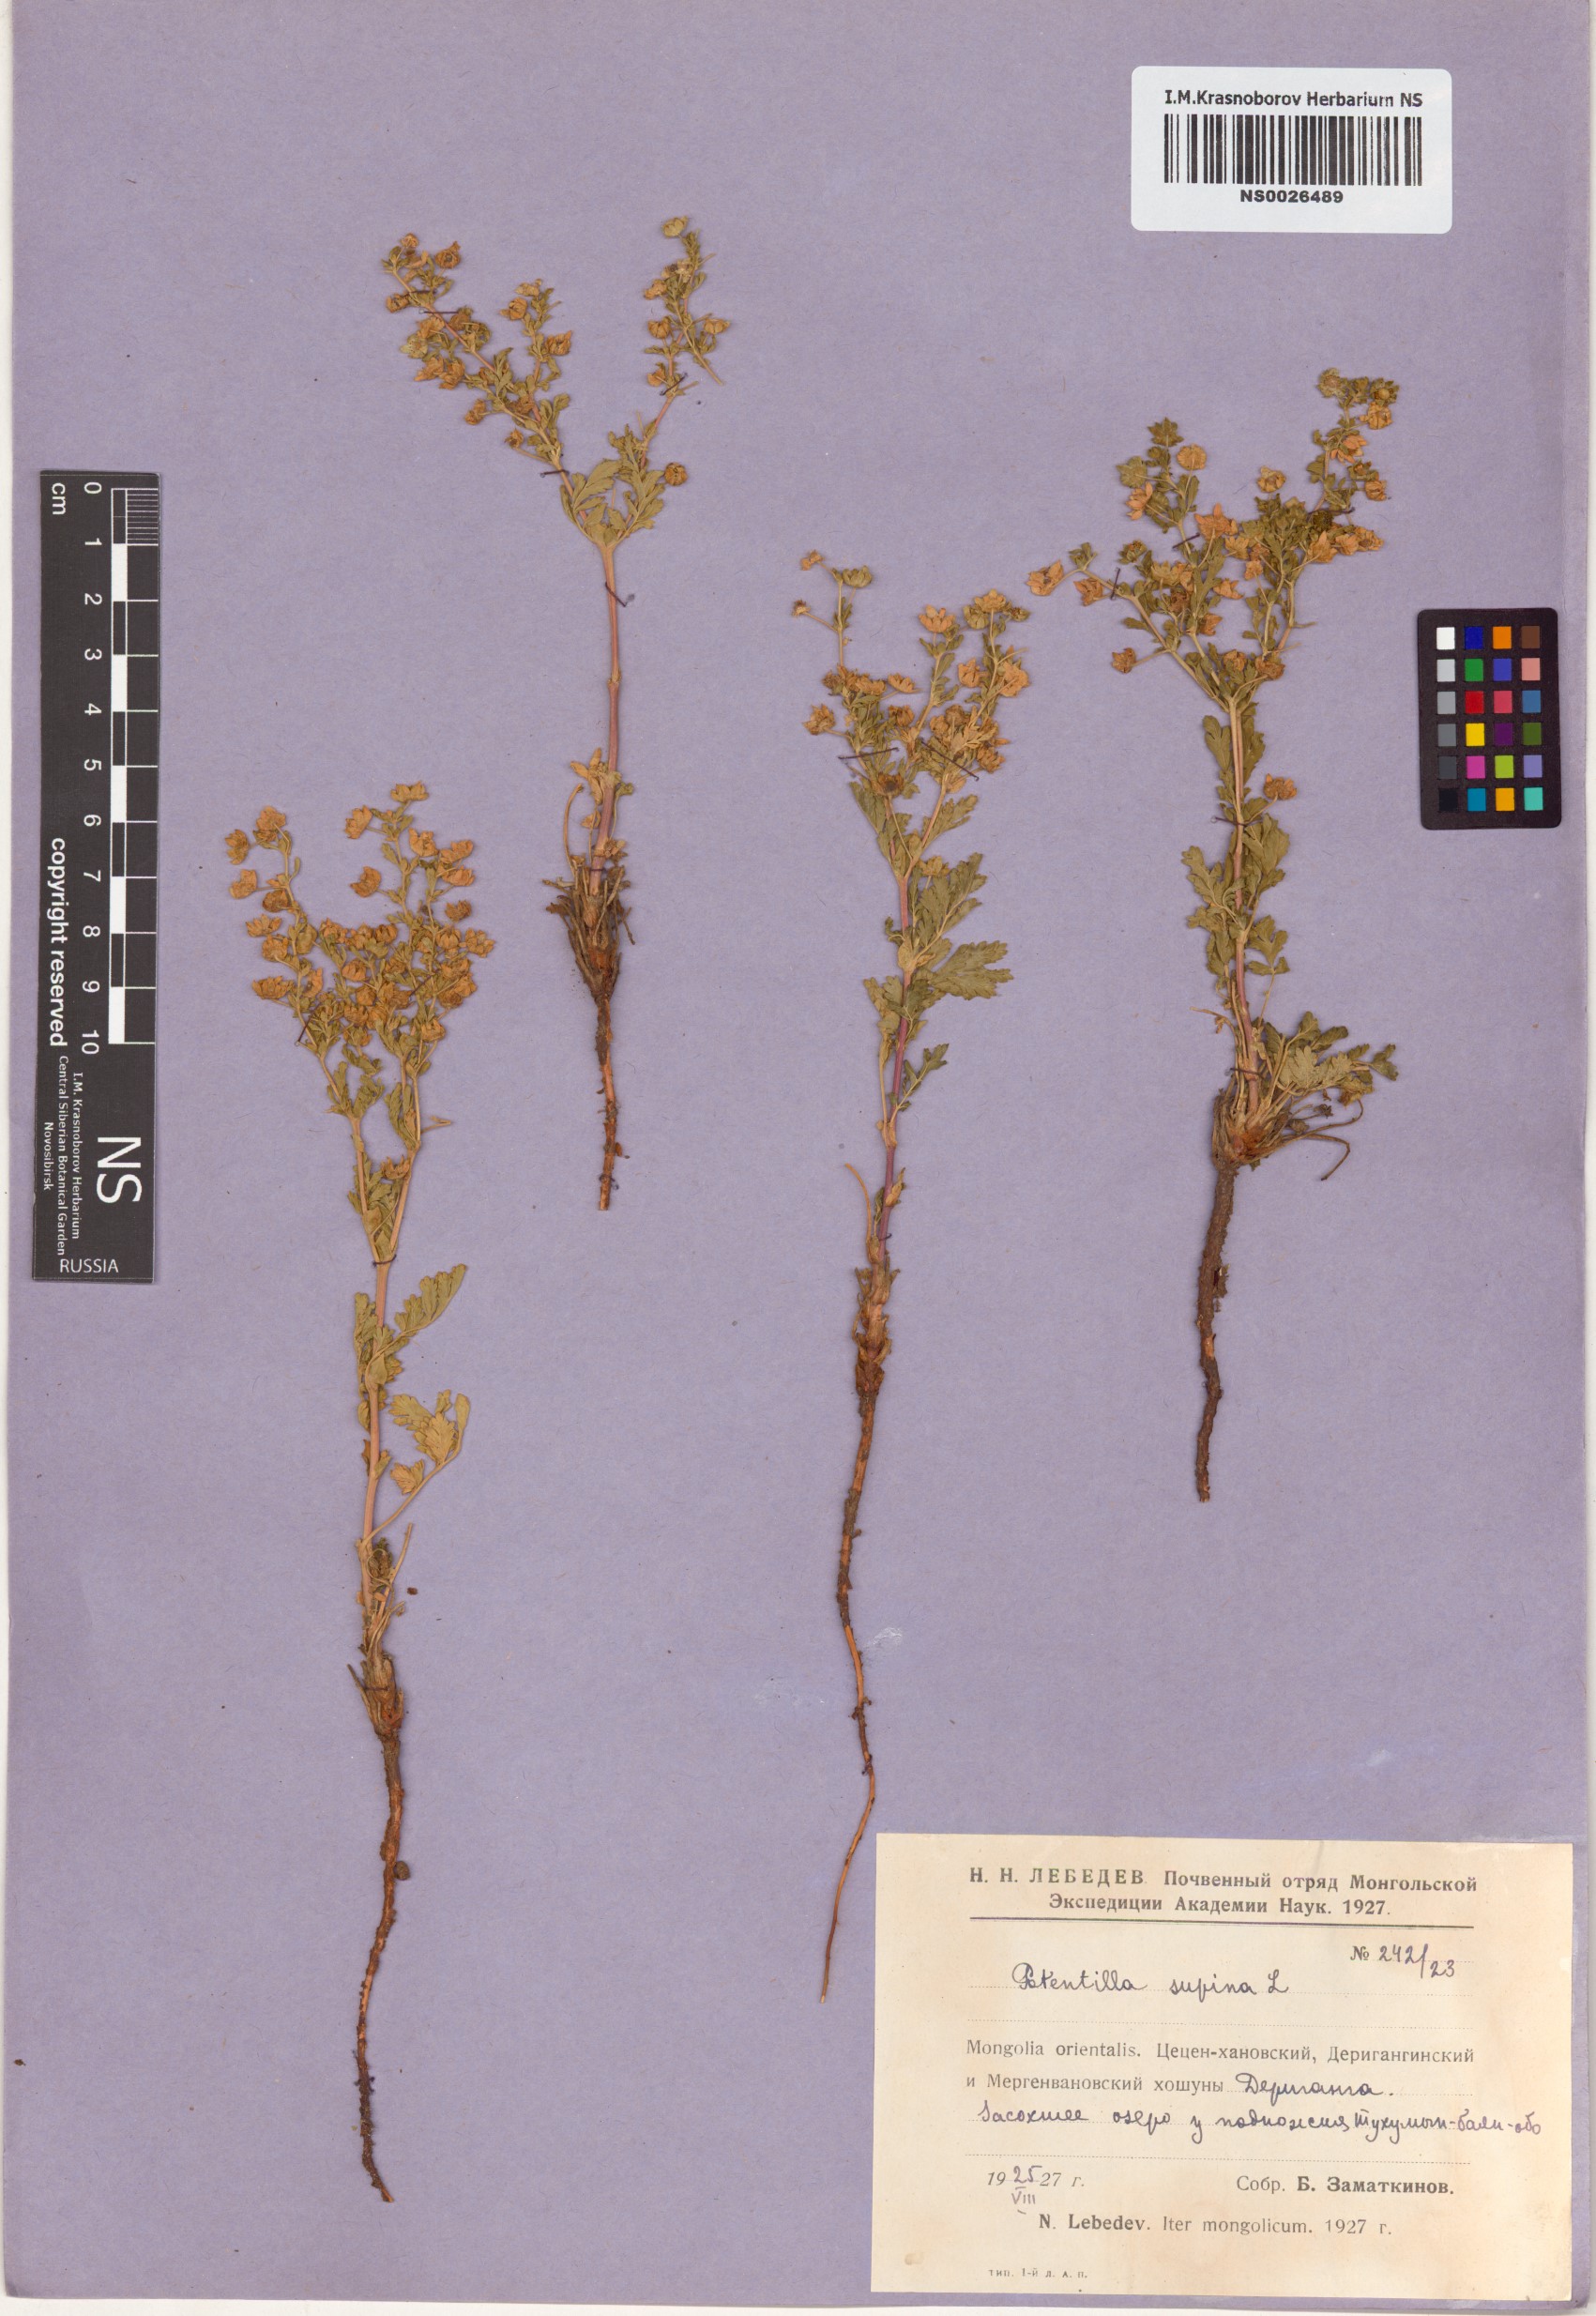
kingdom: Plantae
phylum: Tracheophyta
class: Magnoliopsida
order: Rosales
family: Rosaceae
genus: Potentilla
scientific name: Potentilla supina
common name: Prostrate cinquefoil
